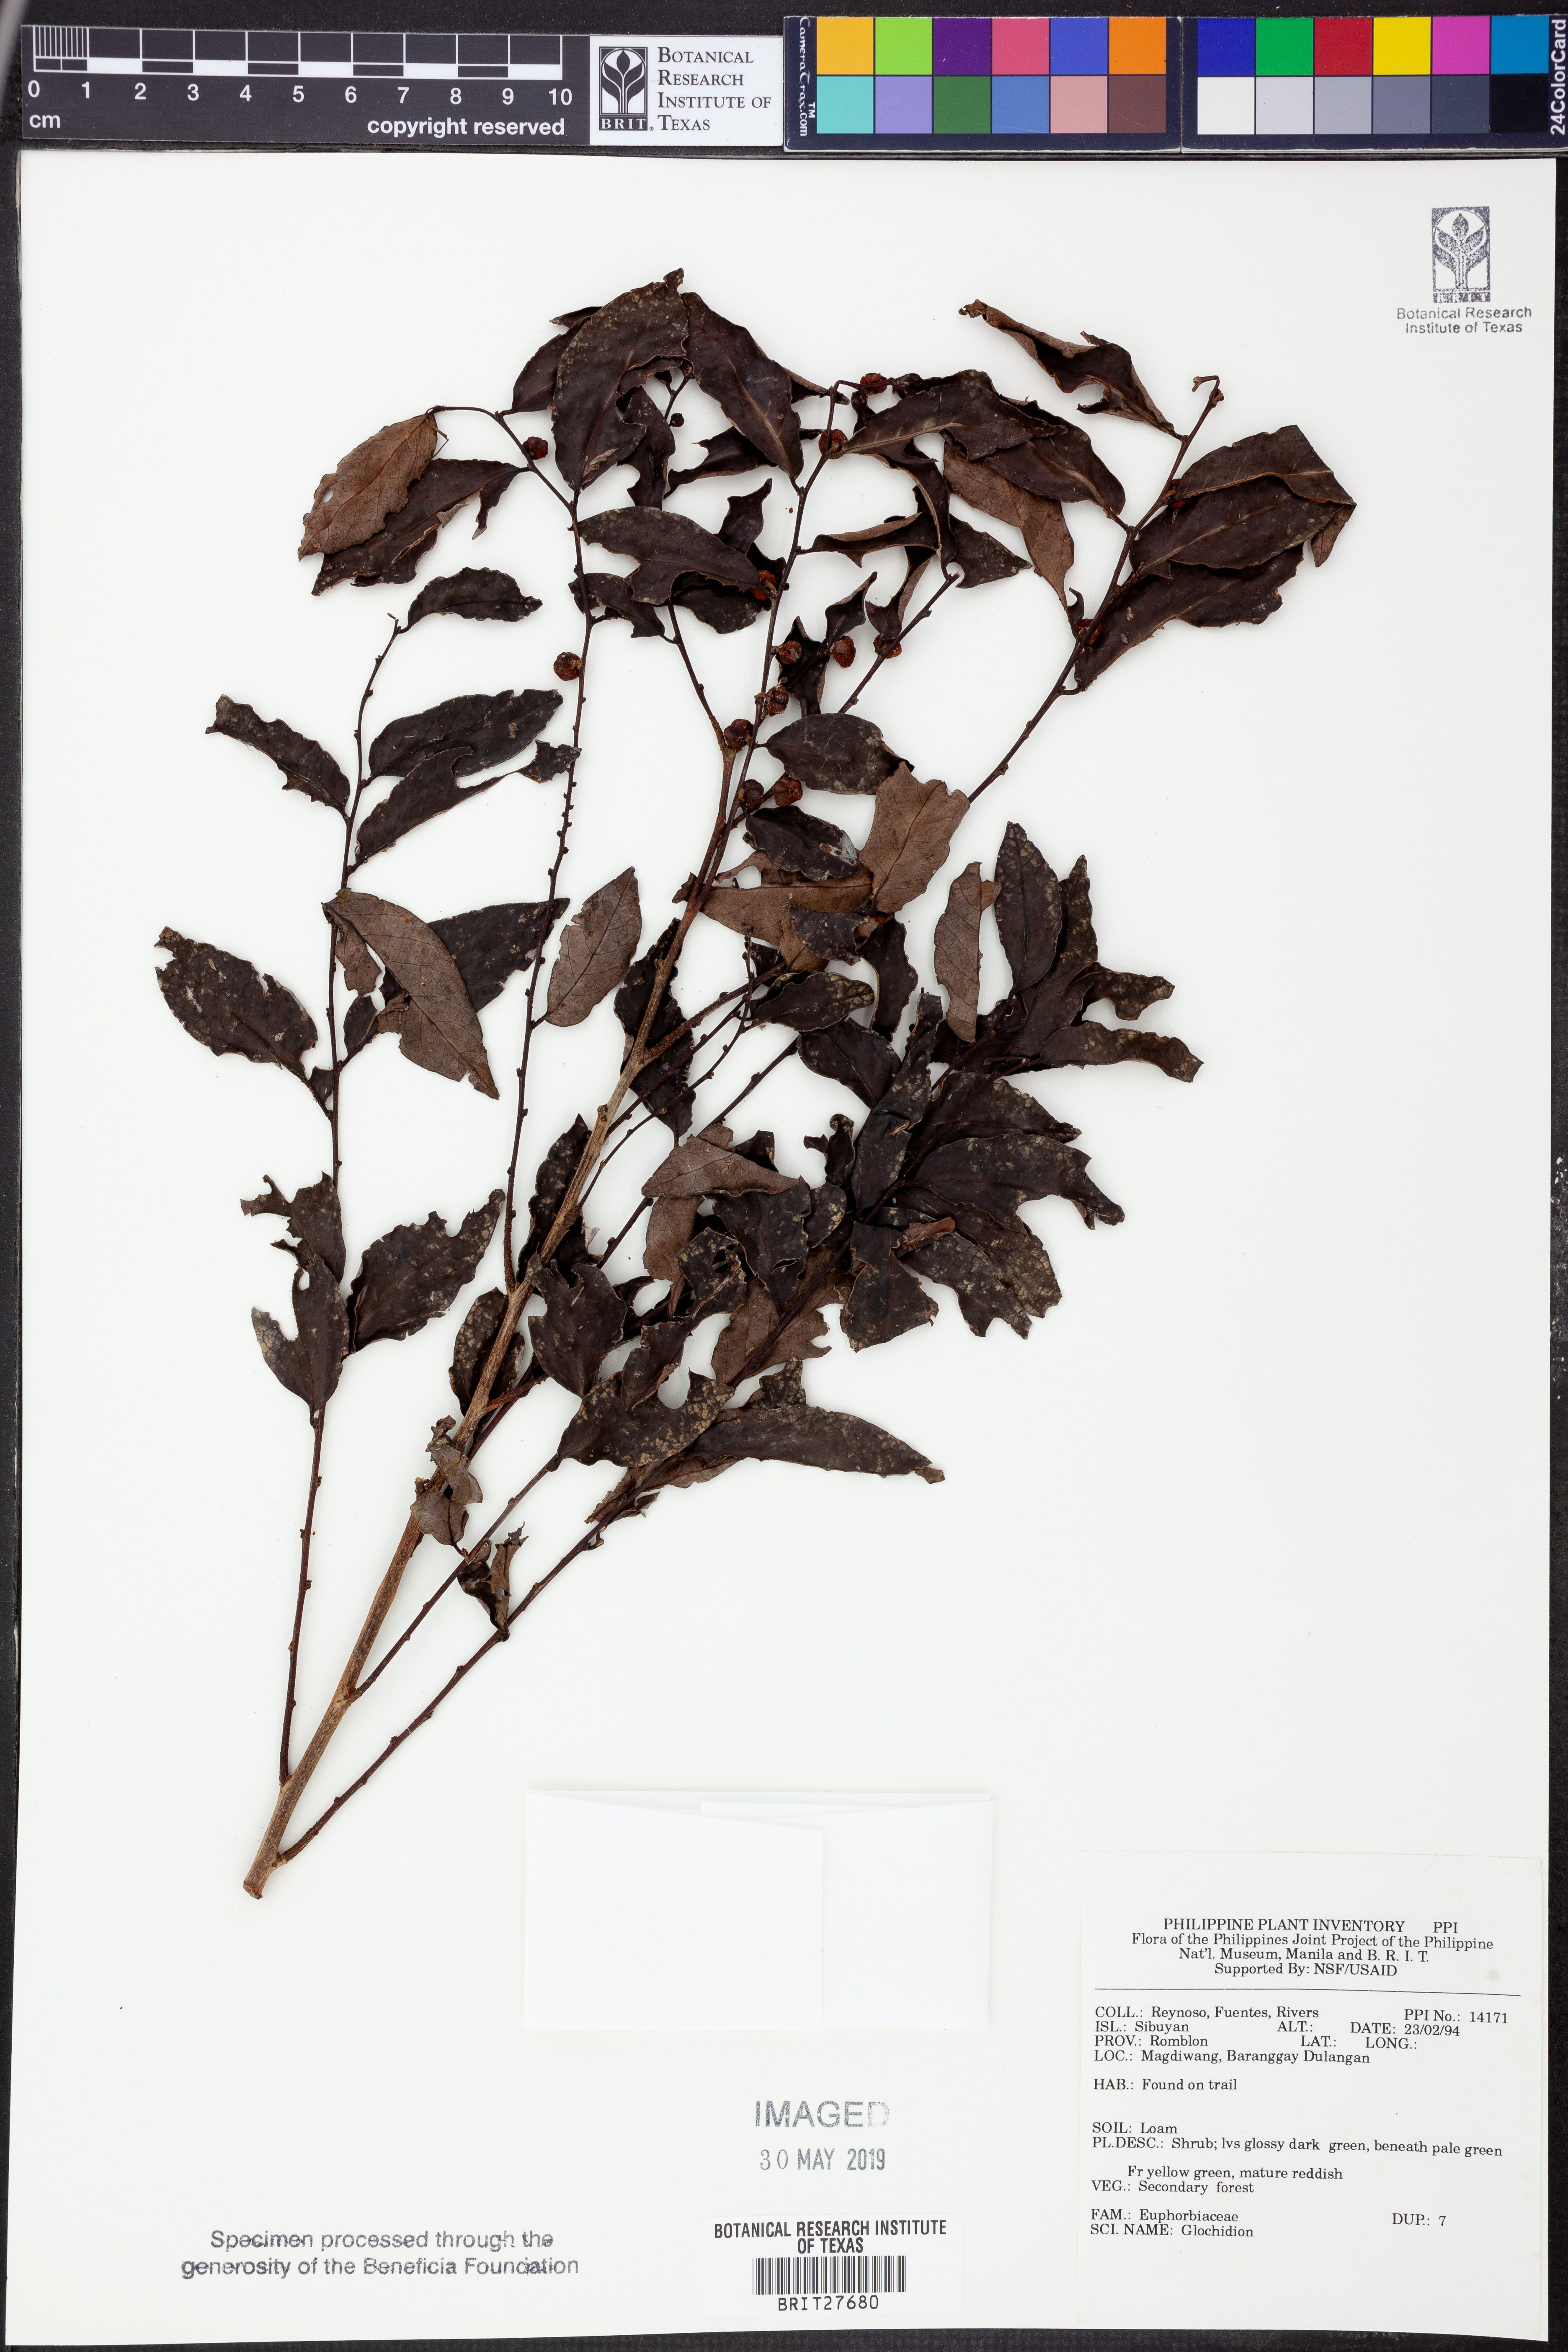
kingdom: Plantae
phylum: Tracheophyta
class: Magnoliopsida
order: Malpighiales
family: Phyllanthaceae
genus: Glochidion
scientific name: Glochidion
